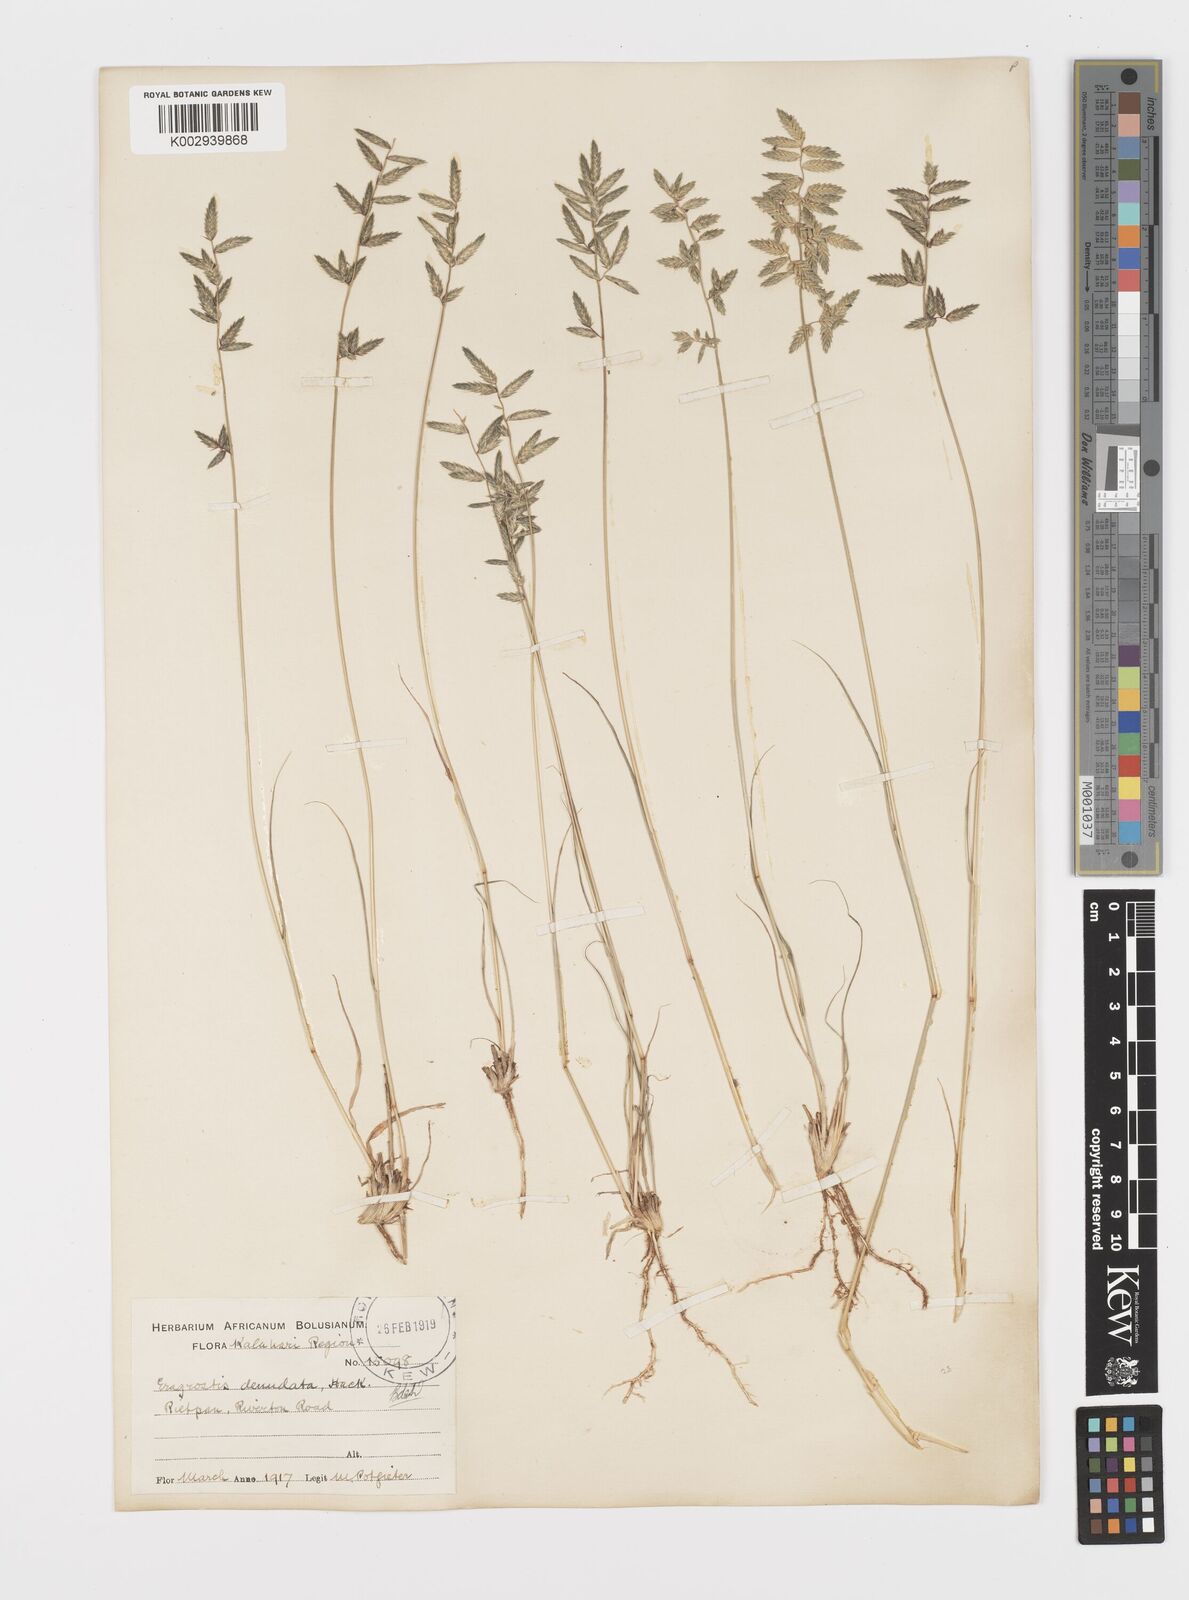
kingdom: Plantae
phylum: Tracheophyta
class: Liliopsida
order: Poales
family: Poaceae
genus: Eragrostis
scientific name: Eragrostis nindensis
